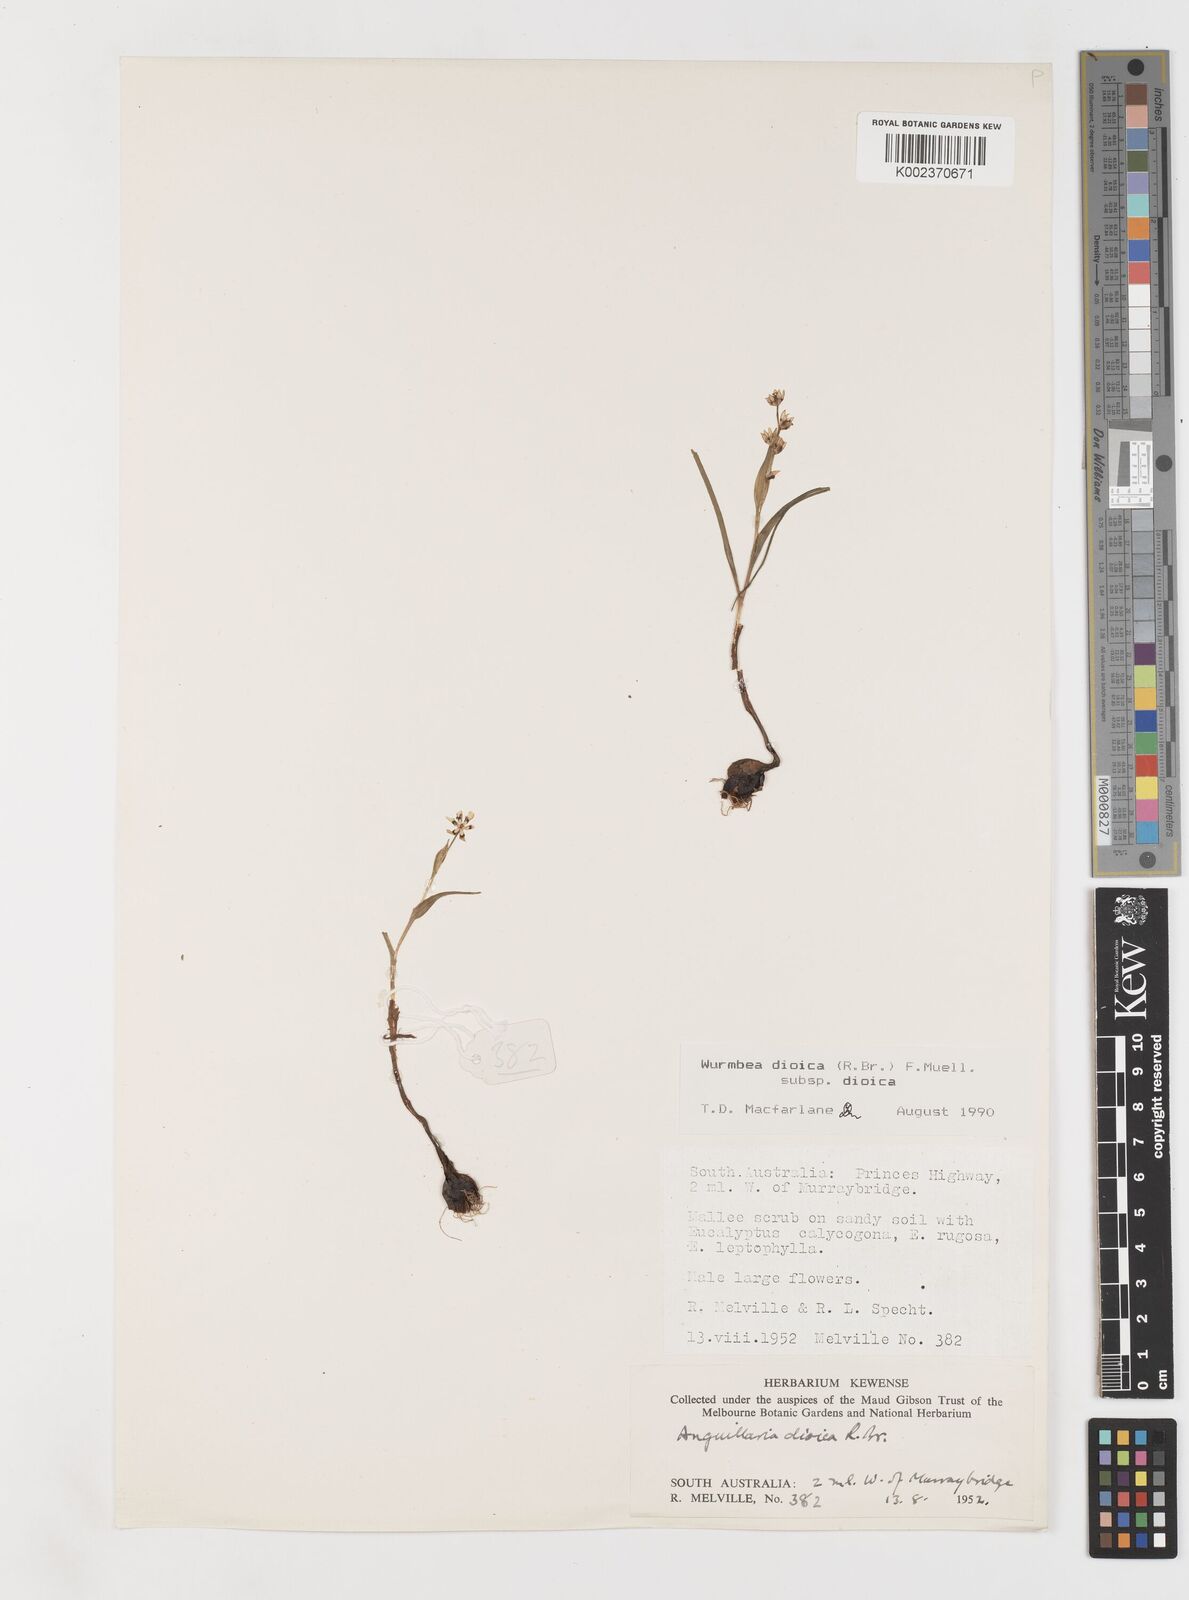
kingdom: Plantae
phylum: Tracheophyta
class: Liliopsida
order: Liliales
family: Colchicaceae
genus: Wurmbea
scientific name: Wurmbea dioica
